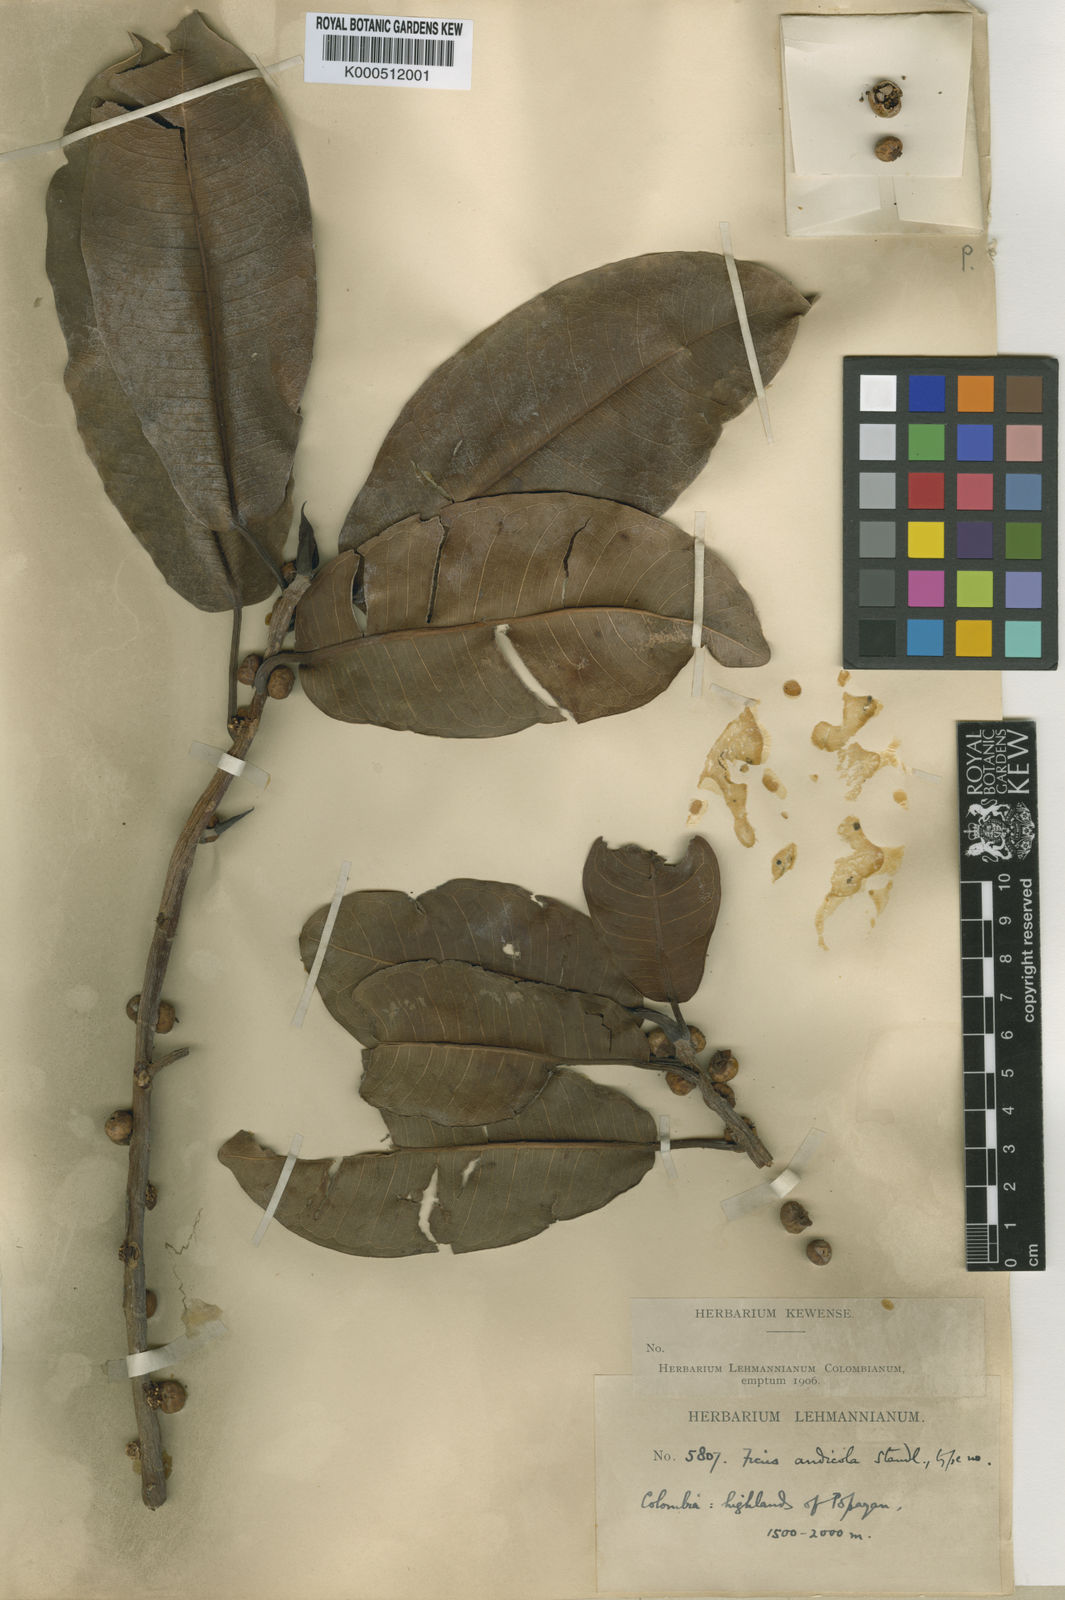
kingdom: Plantae
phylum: Tracheophyta
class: Magnoliopsida
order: Rosales
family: Moraceae
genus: Ficus
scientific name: Ficus americana
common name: Jamaican cherry fig
